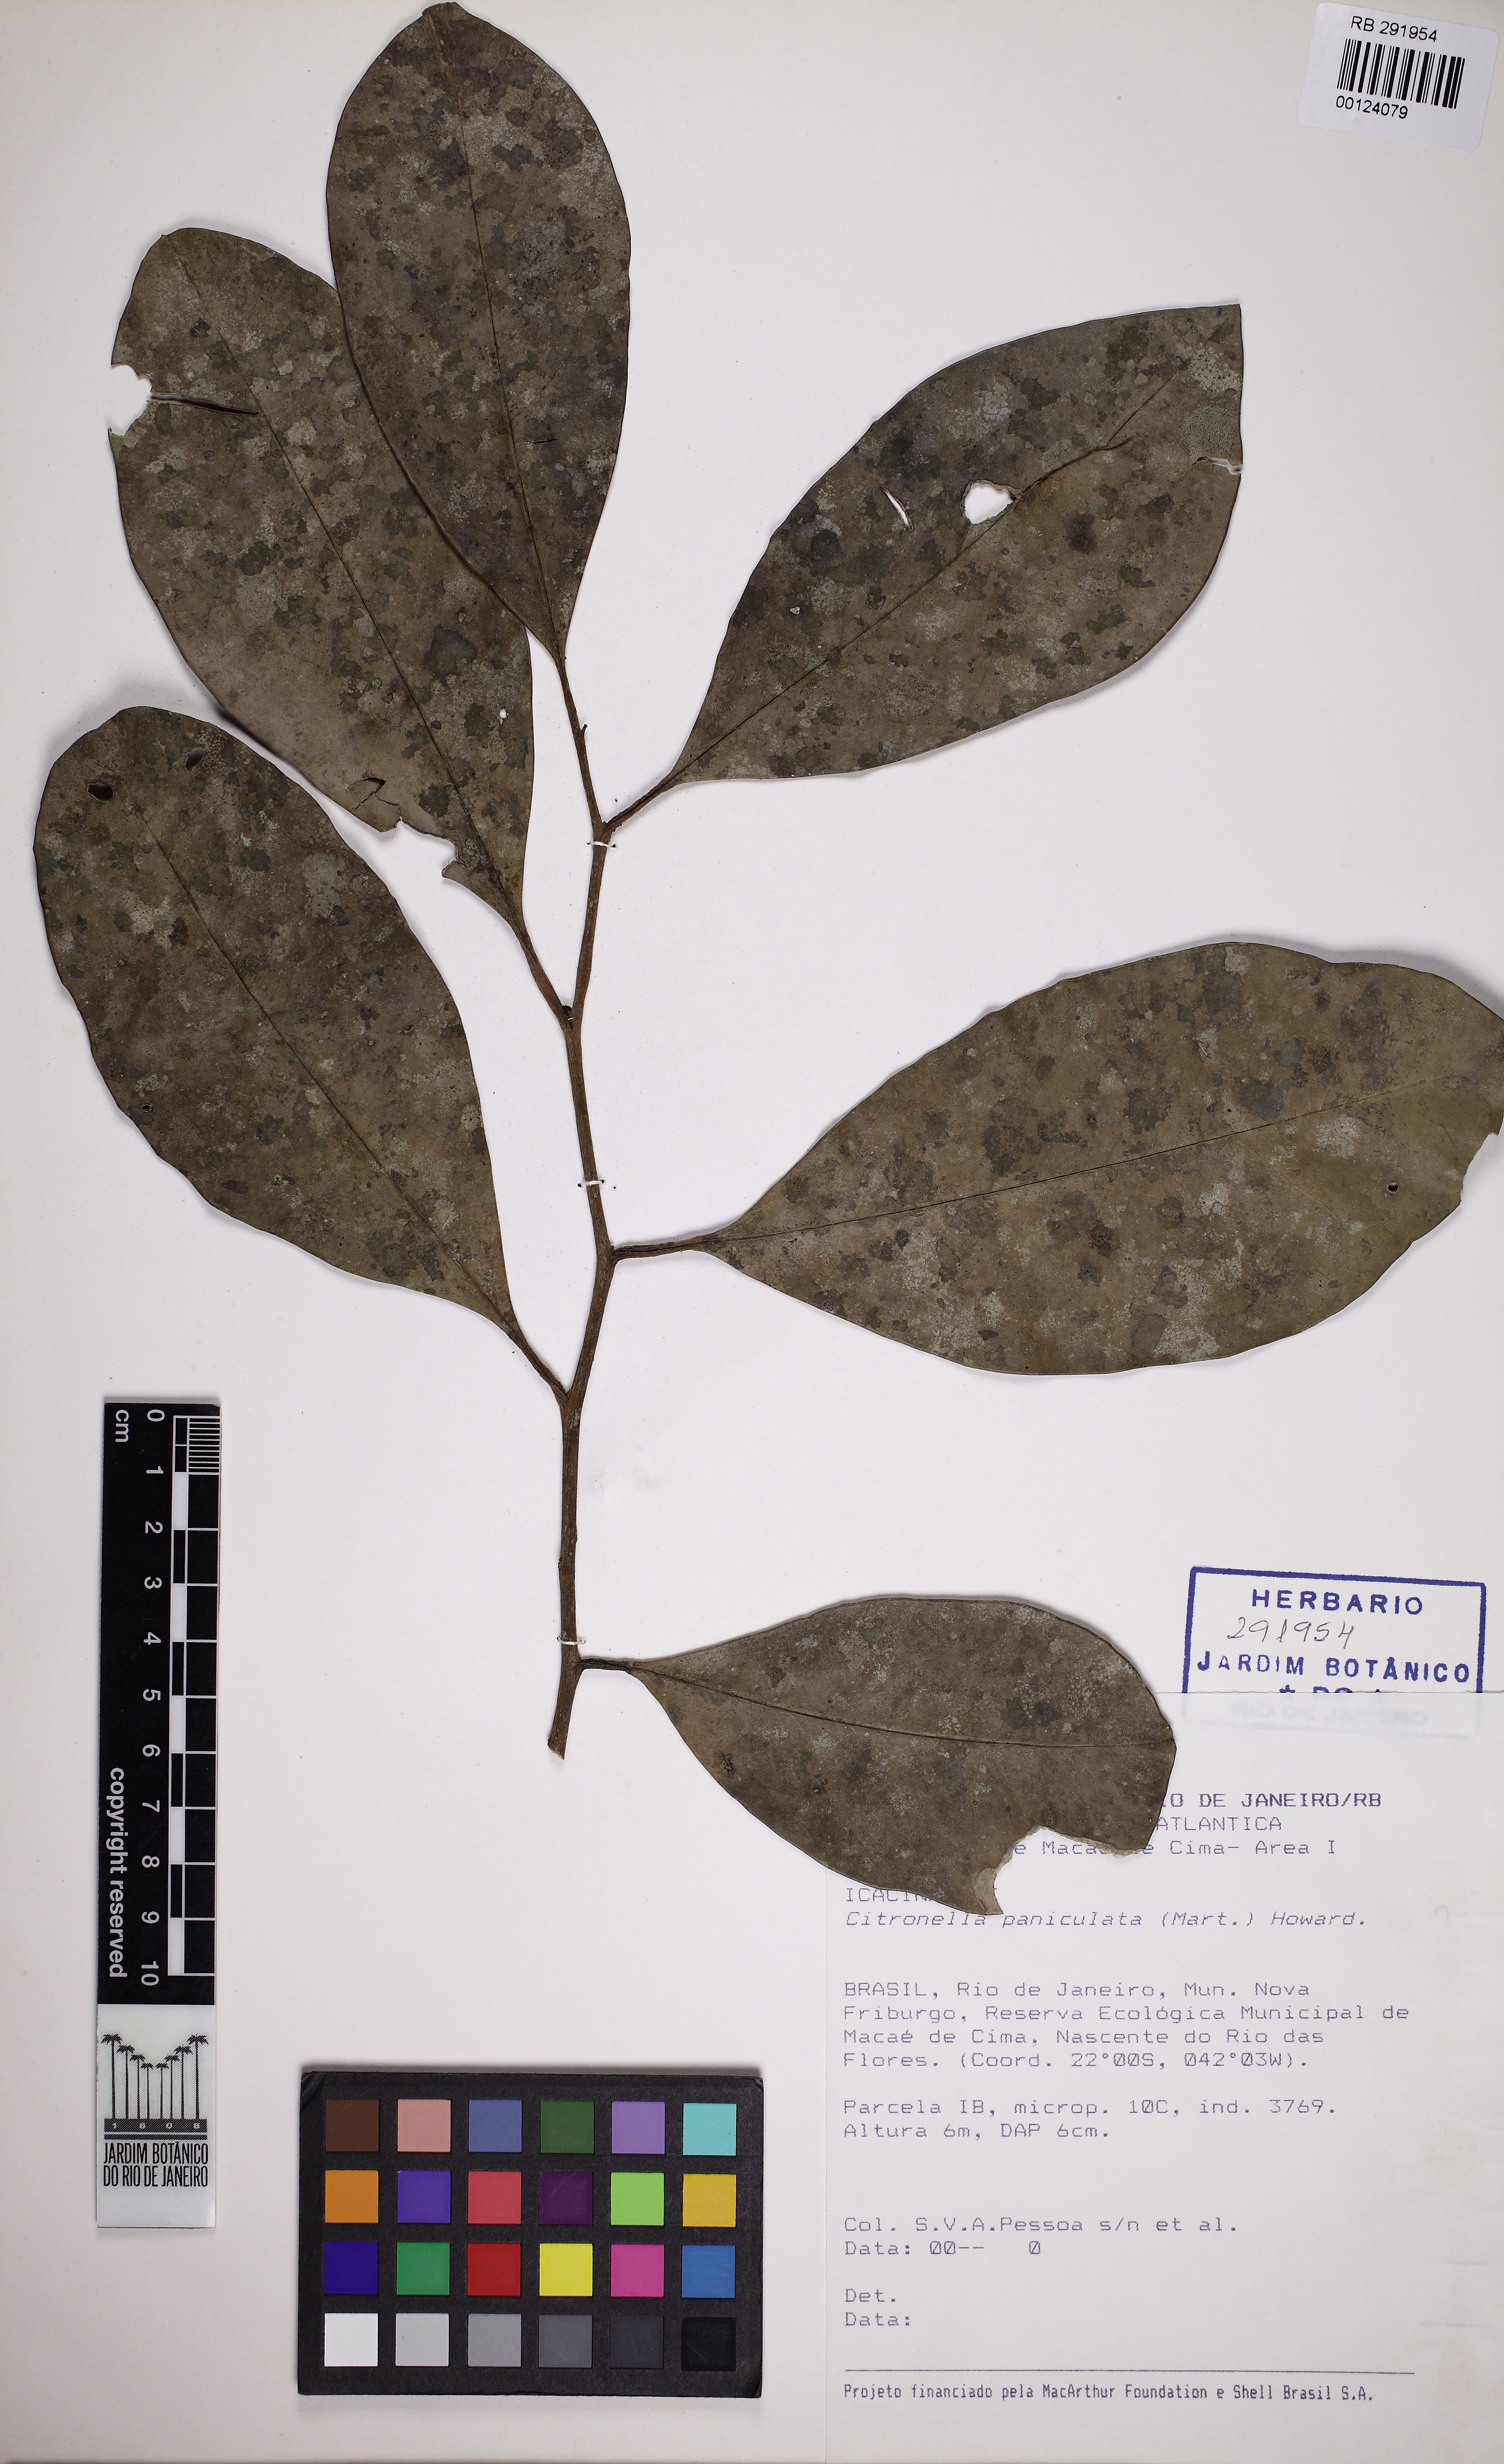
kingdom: Plantae
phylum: Tracheophyta
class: Magnoliopsida
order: Cardiopteridales
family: Cardiopteridaceae
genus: Citronella
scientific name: Citronella paniculata
